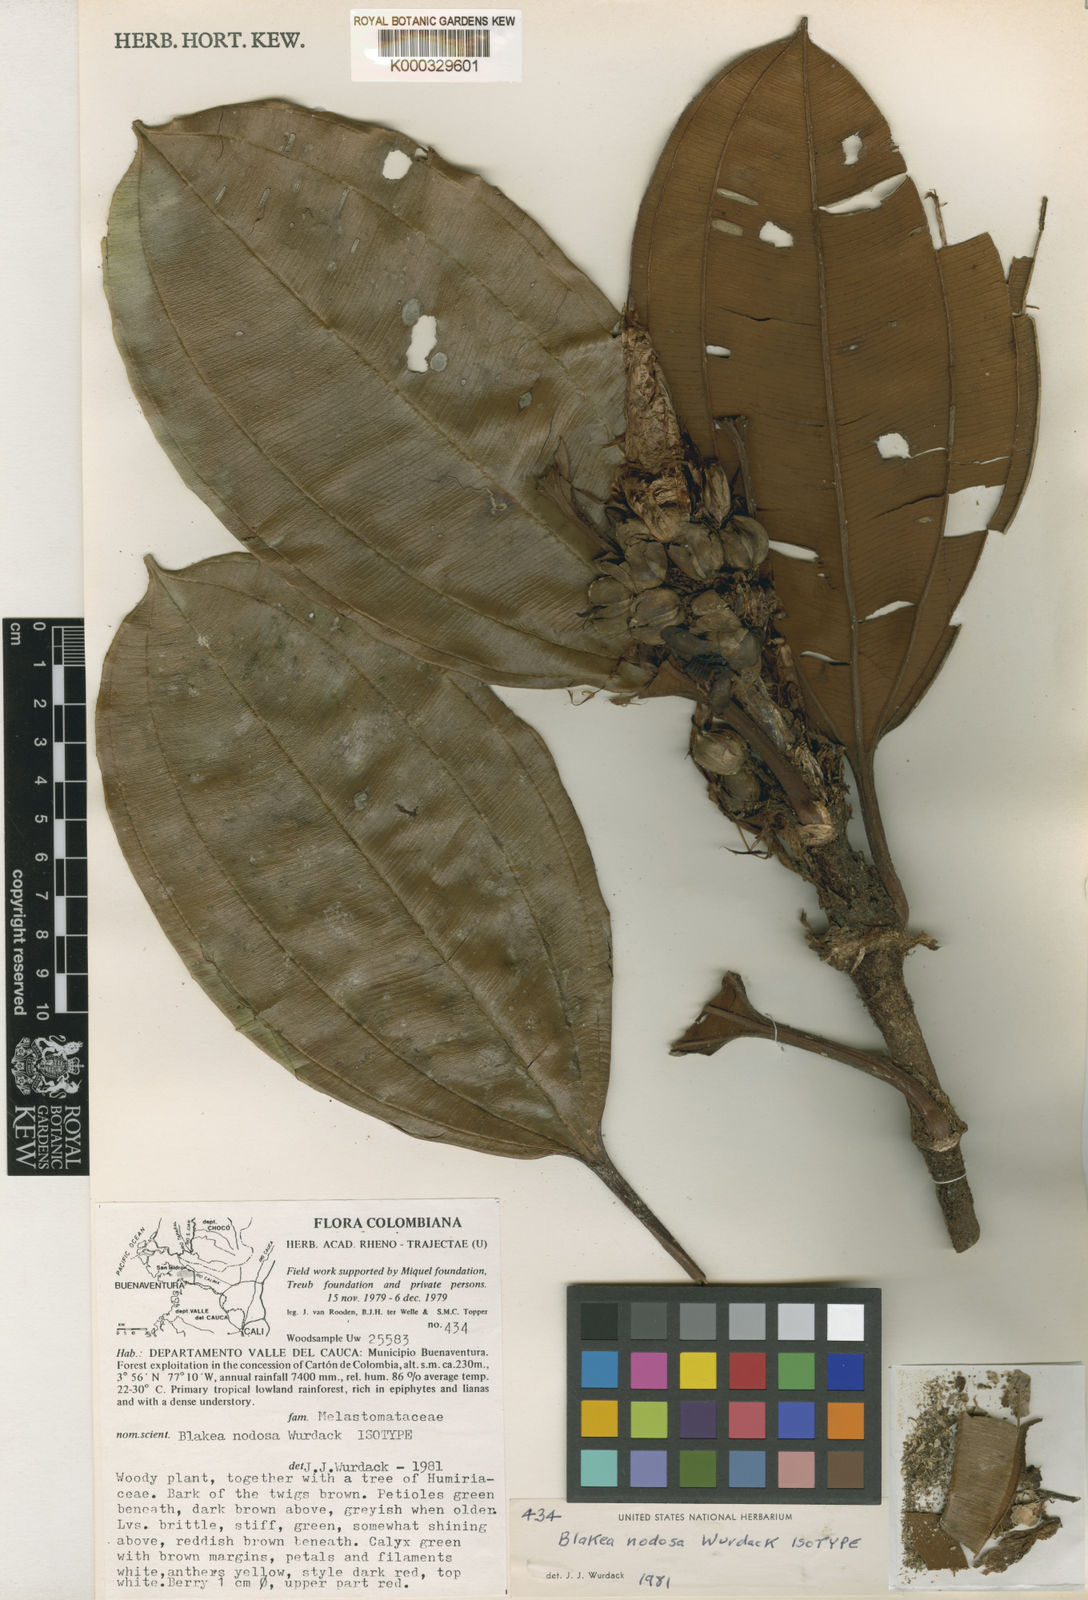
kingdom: Plantae
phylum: Tracheophyta
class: Magnoliopsida
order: Myrtales
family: Melastomataceae
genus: Blakea
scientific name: Blakea nodosa
